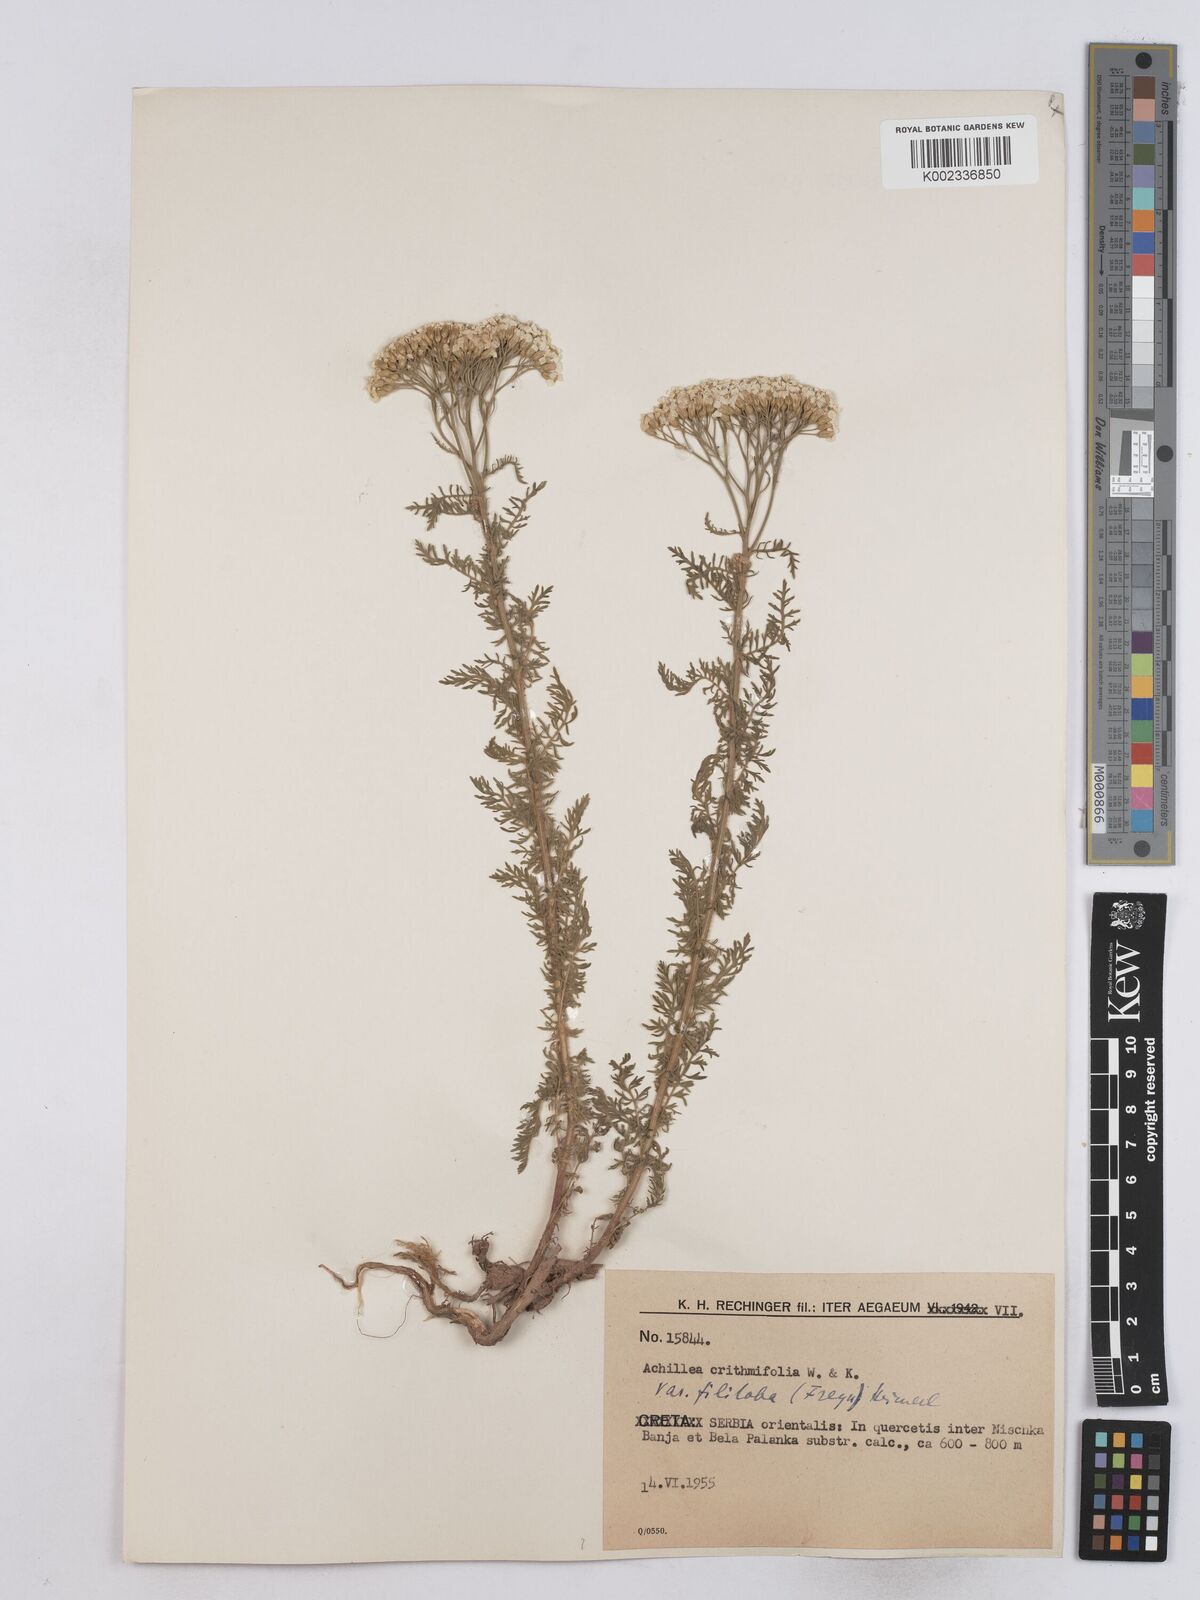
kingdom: Plantae
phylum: Tracheophyta
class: Magnoliopsida
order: Asterales
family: Asteraceae
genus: Achillea
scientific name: Achillea crithmifolia
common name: Yarrow
